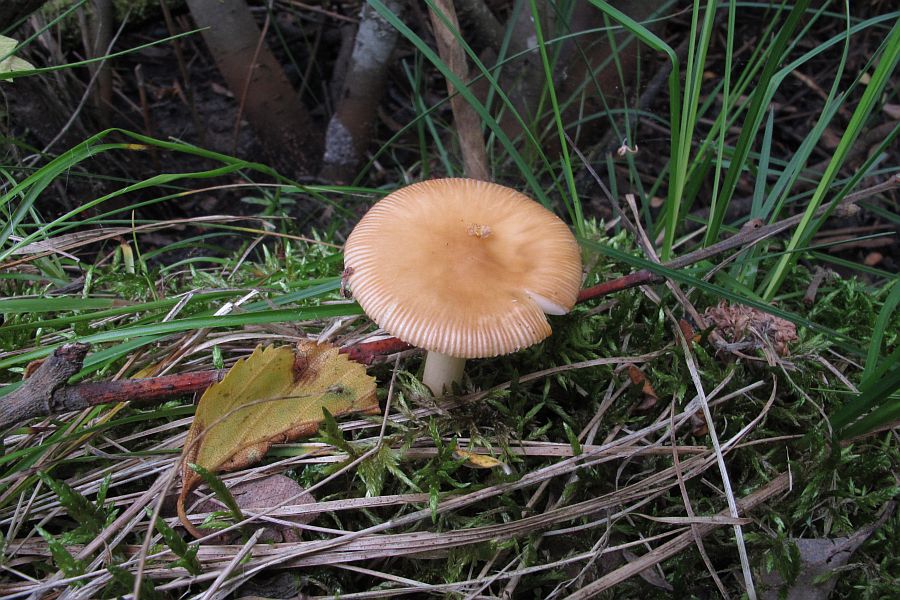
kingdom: Fungi
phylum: Basidiomycota
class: Agaricomycetes
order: Agaricales
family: Amanitaceae
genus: Amanita
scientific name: Amanita fulva
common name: brun kam-fluesvamp
